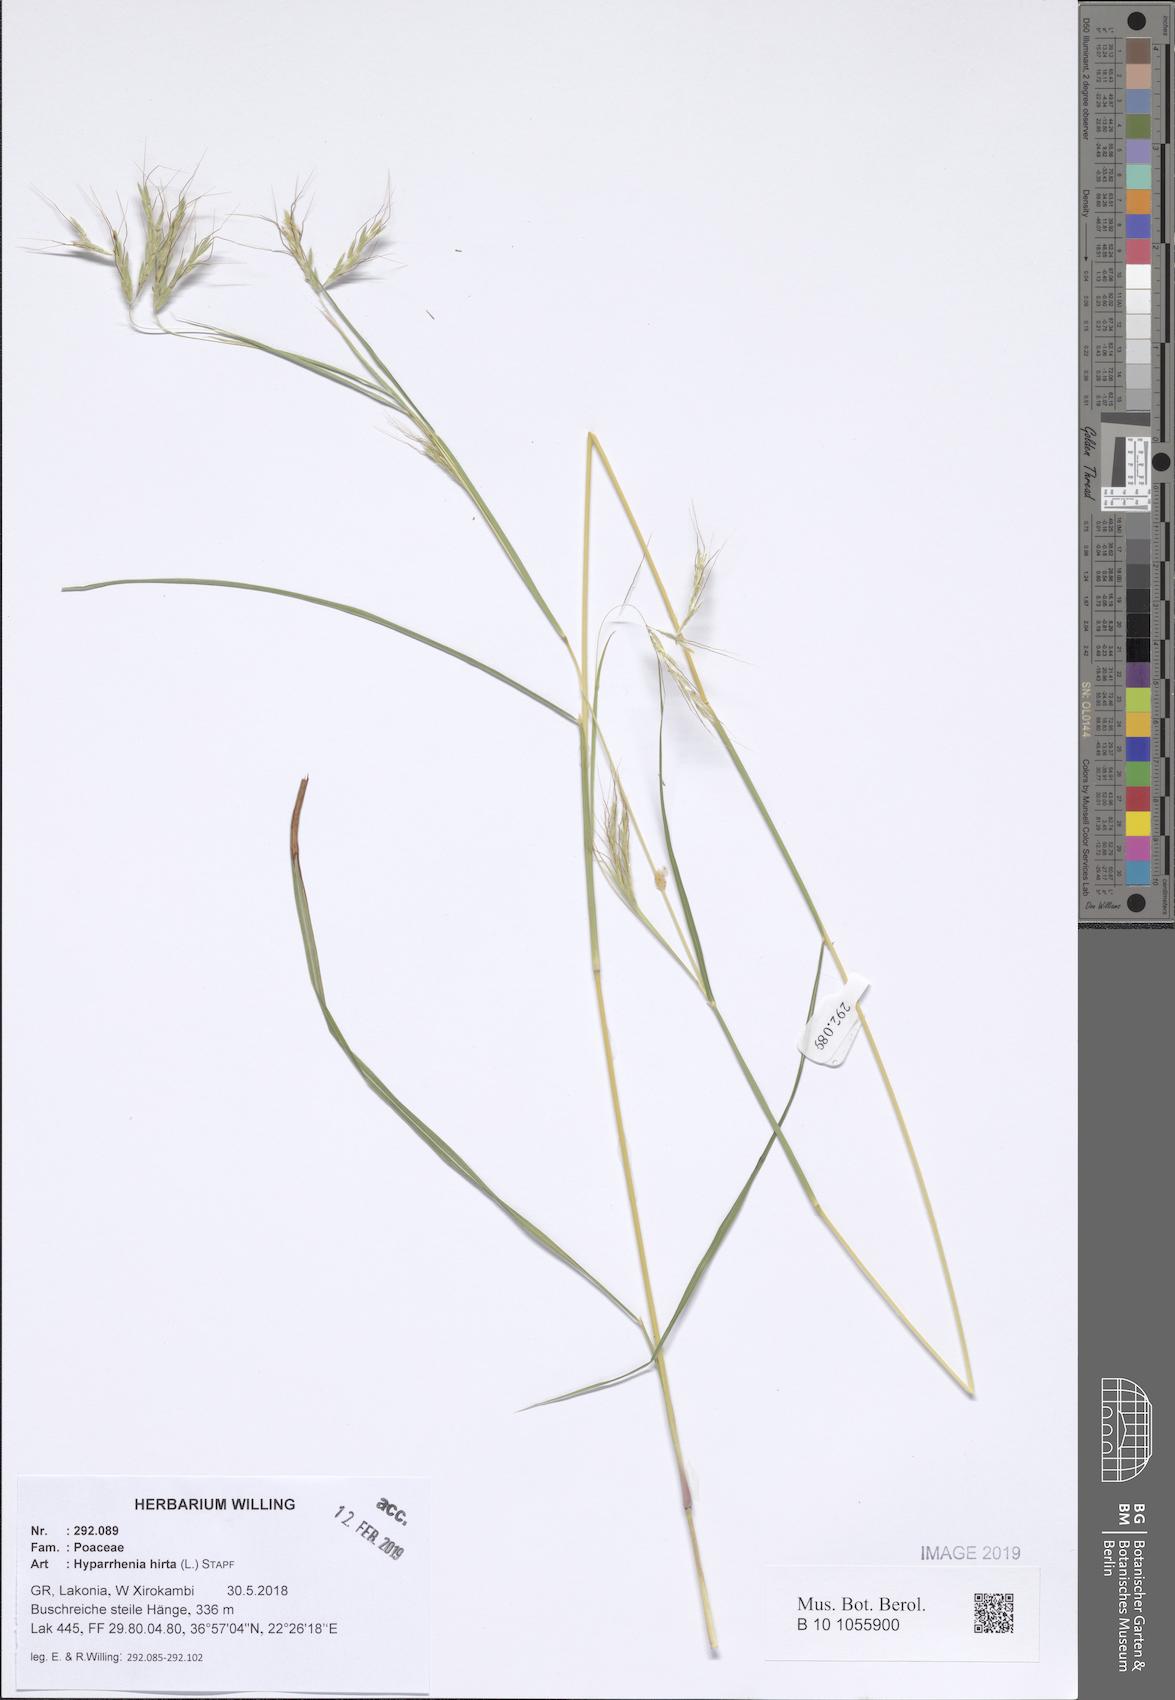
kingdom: Plantae
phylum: Tracheophyta
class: Liliopsida
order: Poales
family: Poaceae
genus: Hyparrhenia
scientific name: Hyparrhenia hirta
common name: Thatching grass
